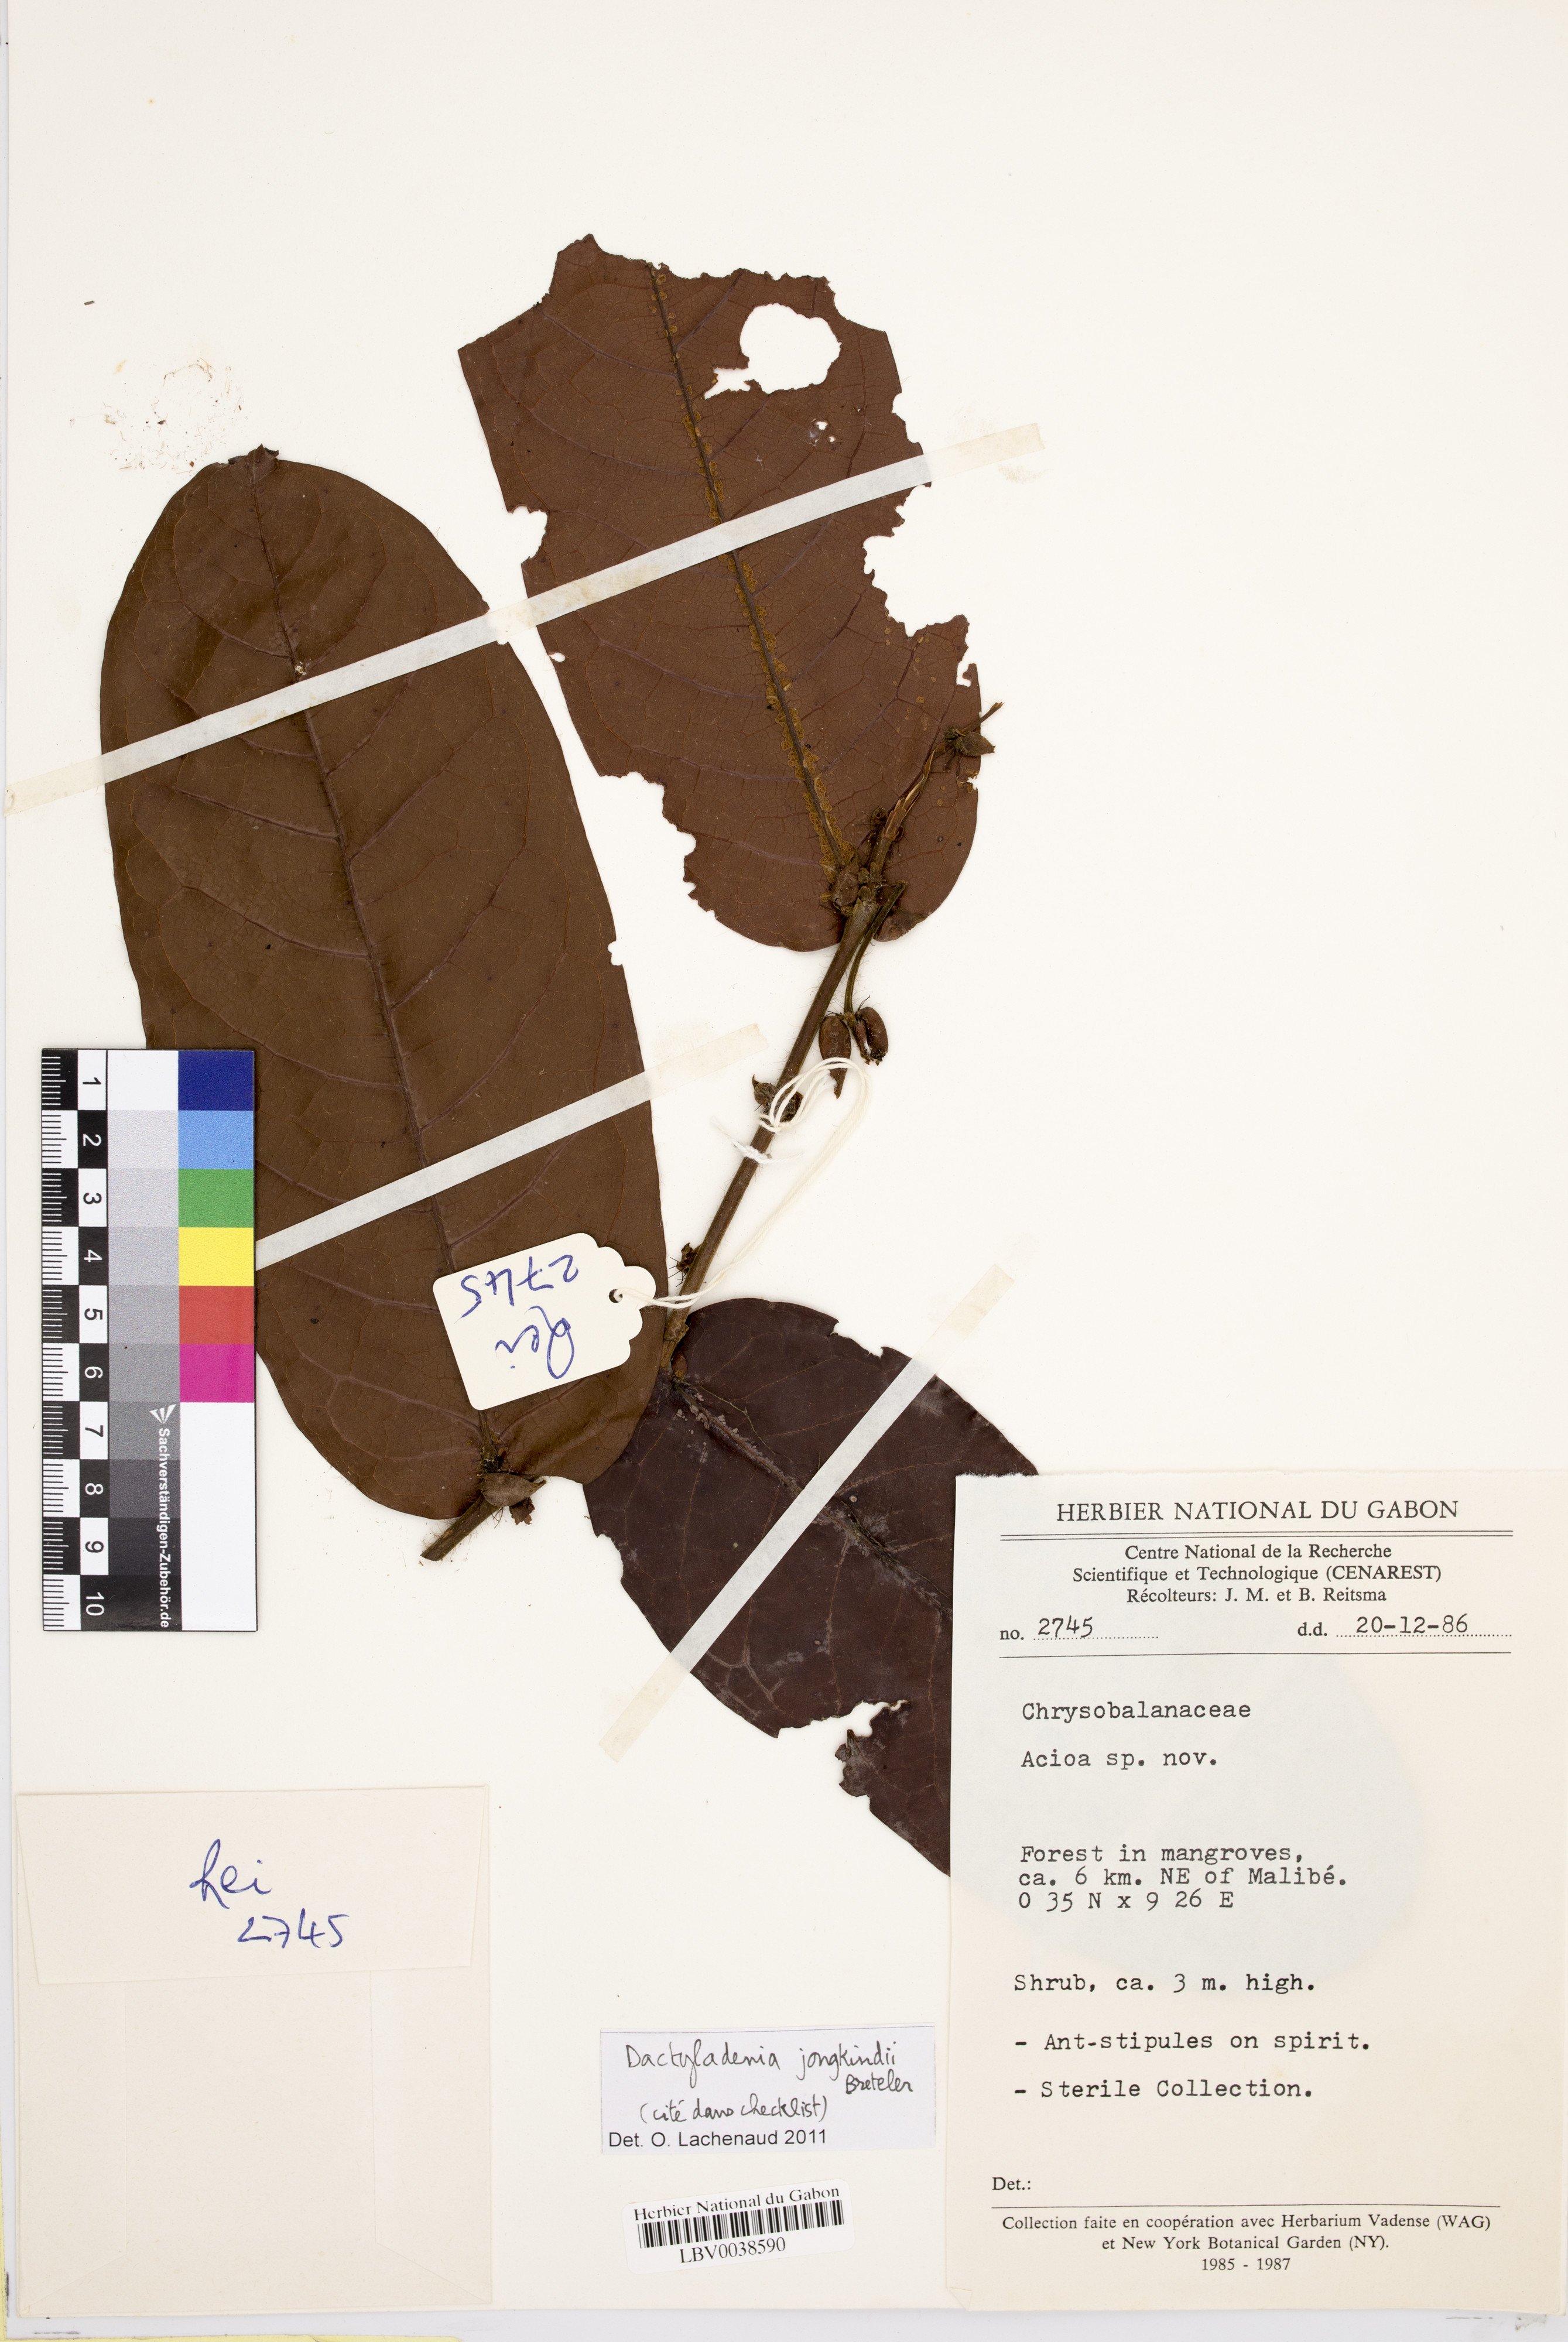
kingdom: Plantae
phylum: Tracheophyta
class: Magnoliopsida
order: Malpighiales
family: Chrysobalanaceae
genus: Dactyladenia
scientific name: Dactyladenia jongkindii
